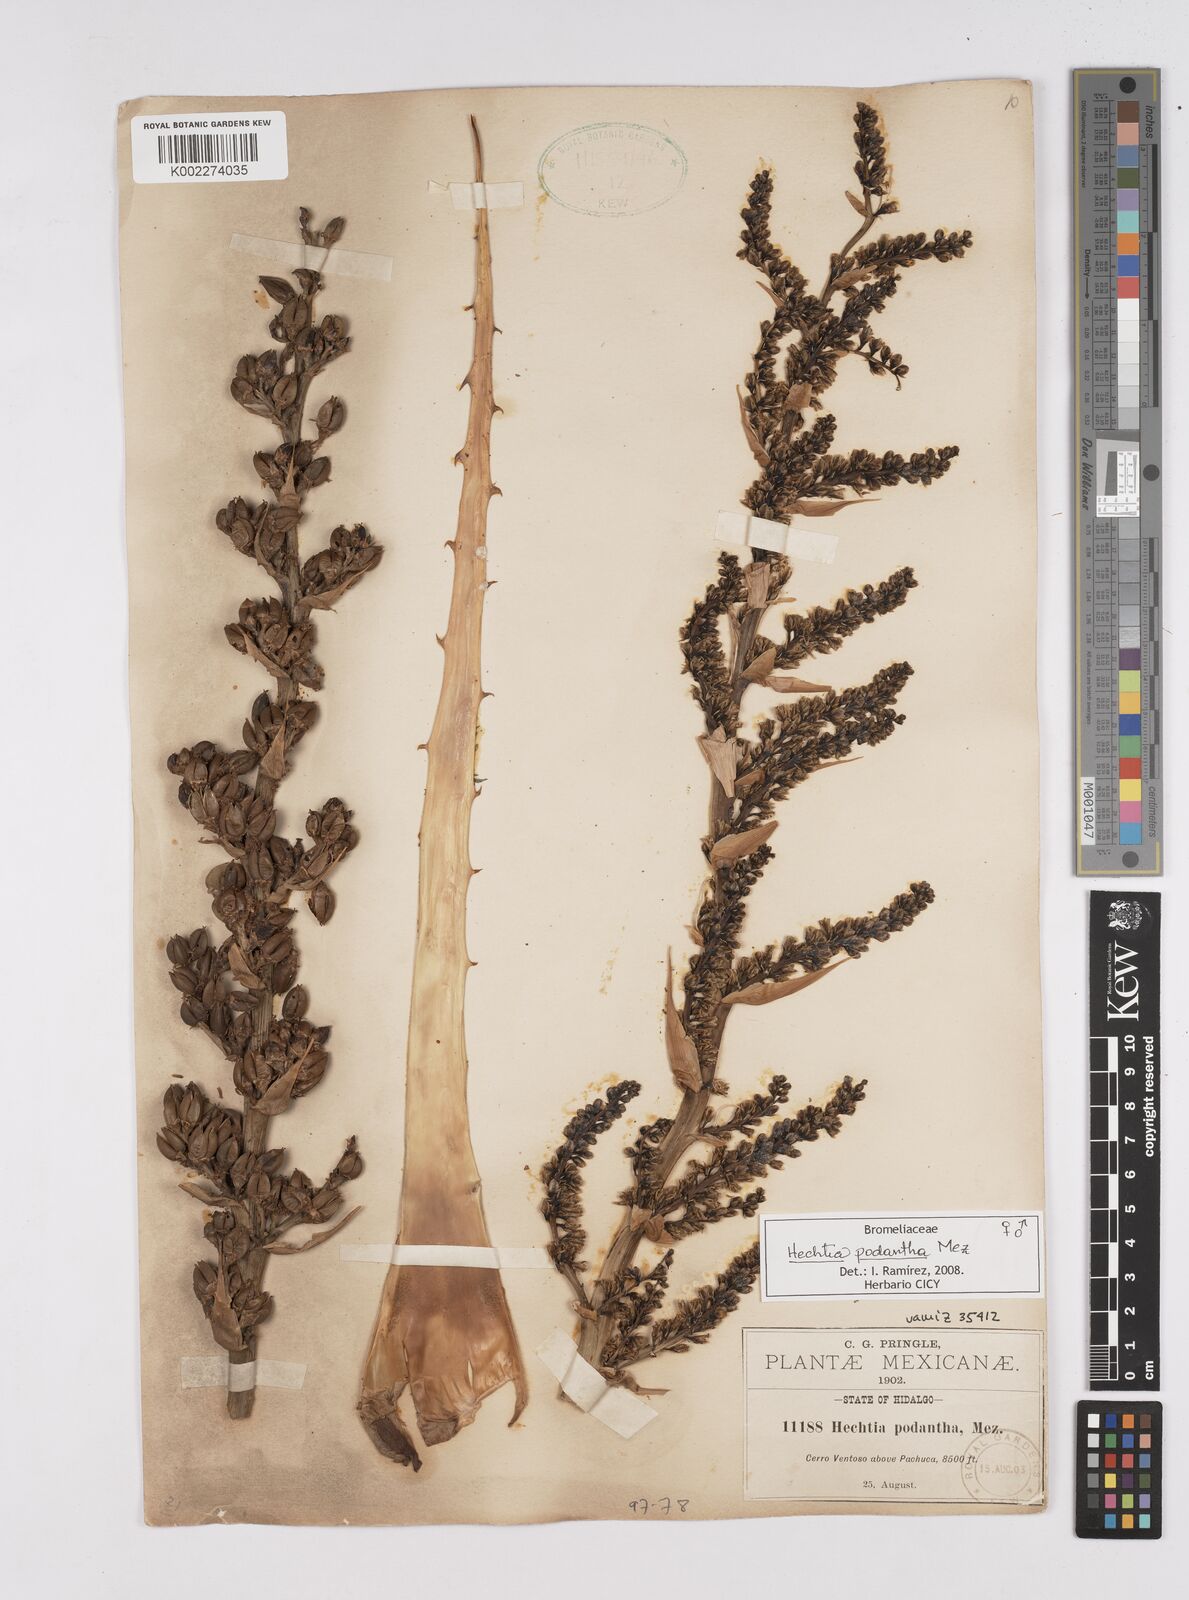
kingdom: Plantae
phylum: Tracheophyta
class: Liliopsida
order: Poales
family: Bromeliaceae
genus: Hechtia
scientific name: Hechtia podantha
